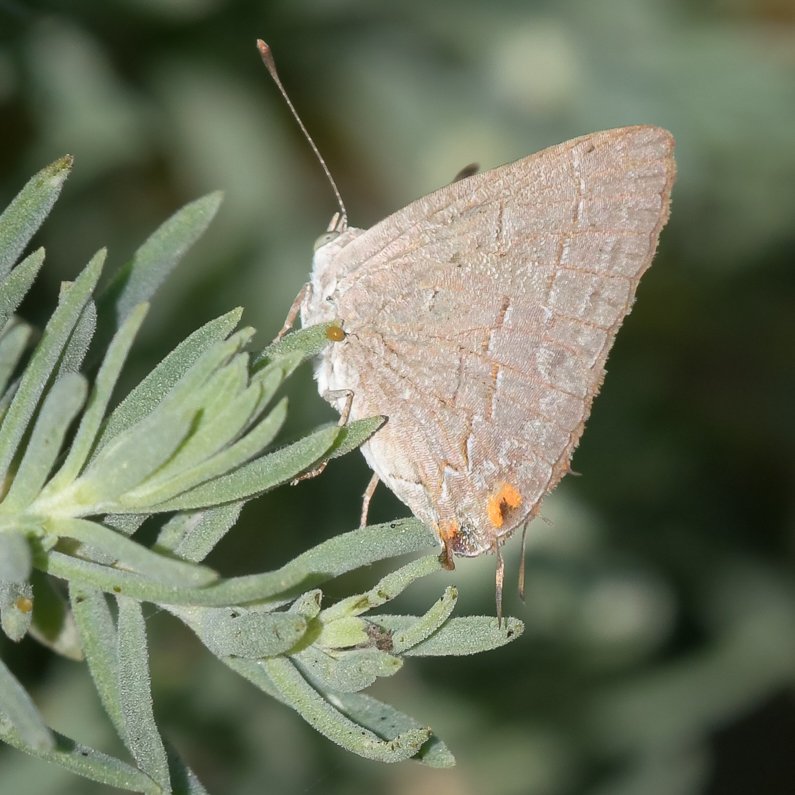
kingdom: Animalia
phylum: Arthropoda
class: Insecta
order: Lepidoptera
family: Lycaenidae
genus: Ministrymon
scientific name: Ministrymon leda
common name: Leda Ministreak
